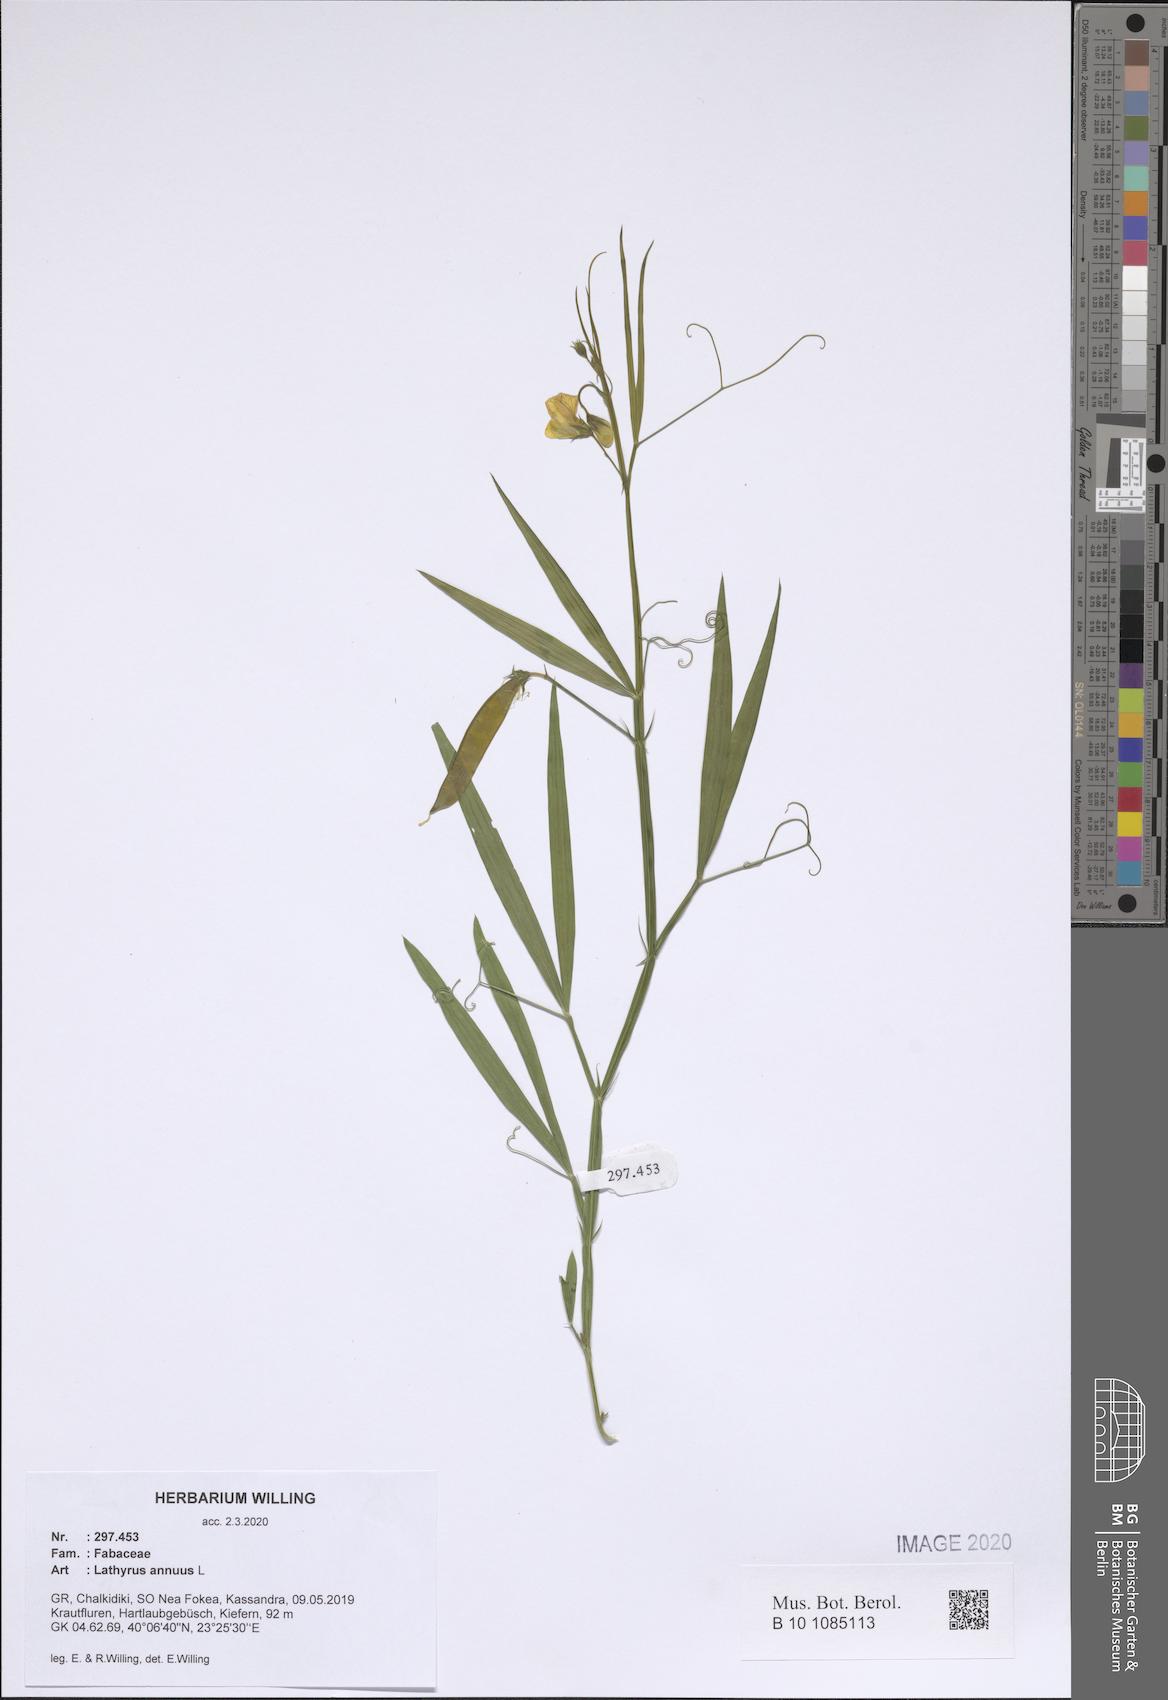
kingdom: Plantae
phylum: Tracheophyta
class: Magnoliopsida
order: Fabales
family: Fabaceae
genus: Lathyrus
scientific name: Lathyrus annuus
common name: Fodder pea
